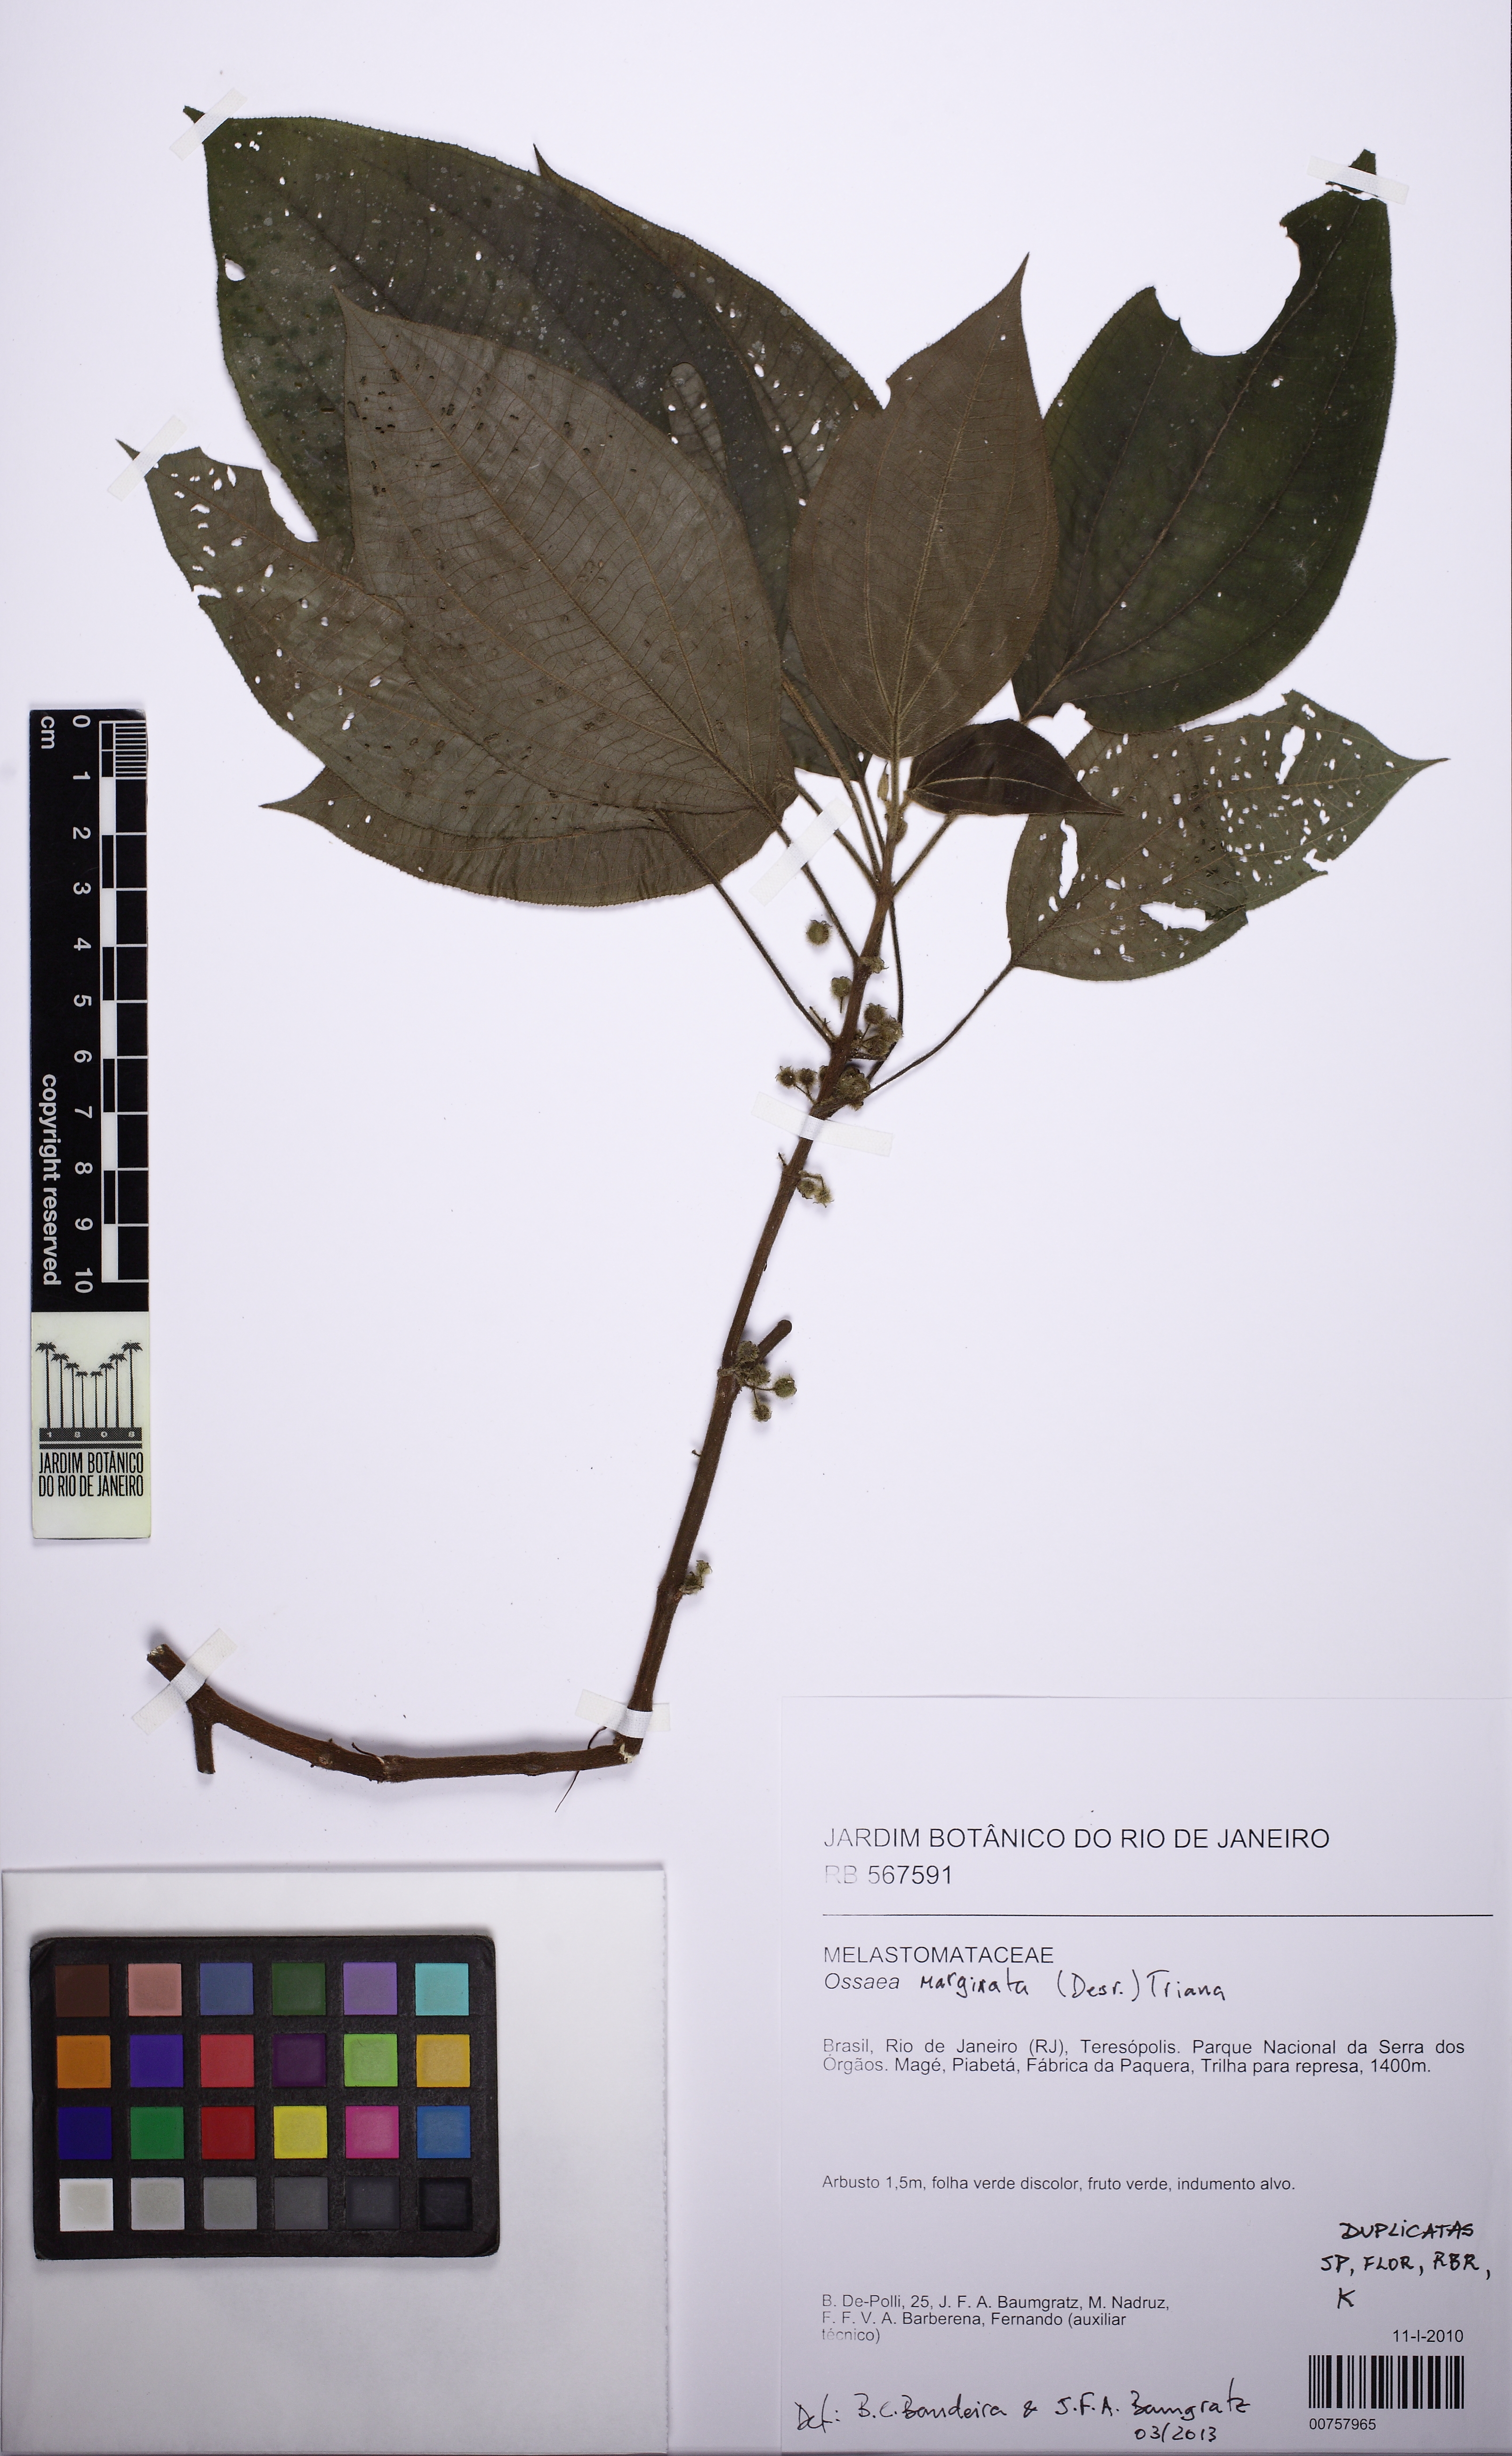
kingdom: Plantae
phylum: Tracheophyta
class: Magnoliopsida
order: Myrtales
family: Melastomataceae
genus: Miconia
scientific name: Miconia leamarginata
